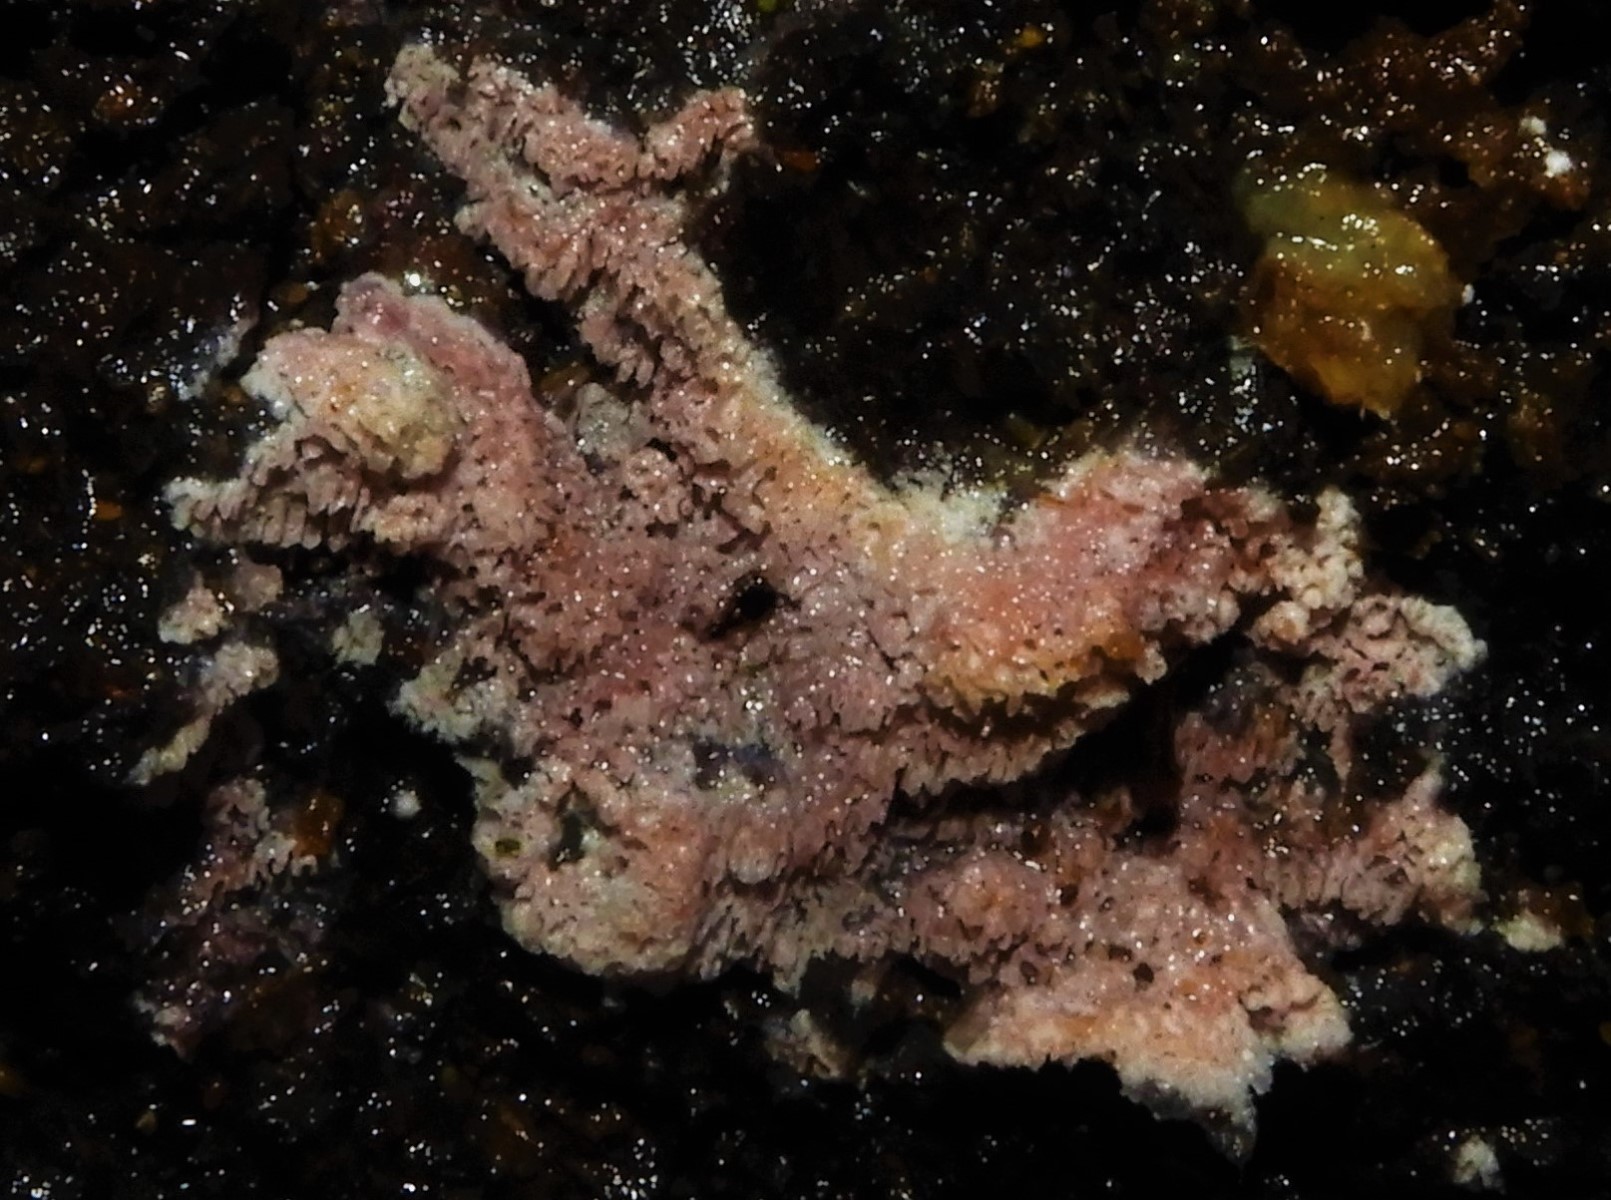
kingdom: Fungi
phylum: Basidiomycota
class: Agaricomycetes
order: Polyporales
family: Irpicaceae
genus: Ceriporia
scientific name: Ceriporia
